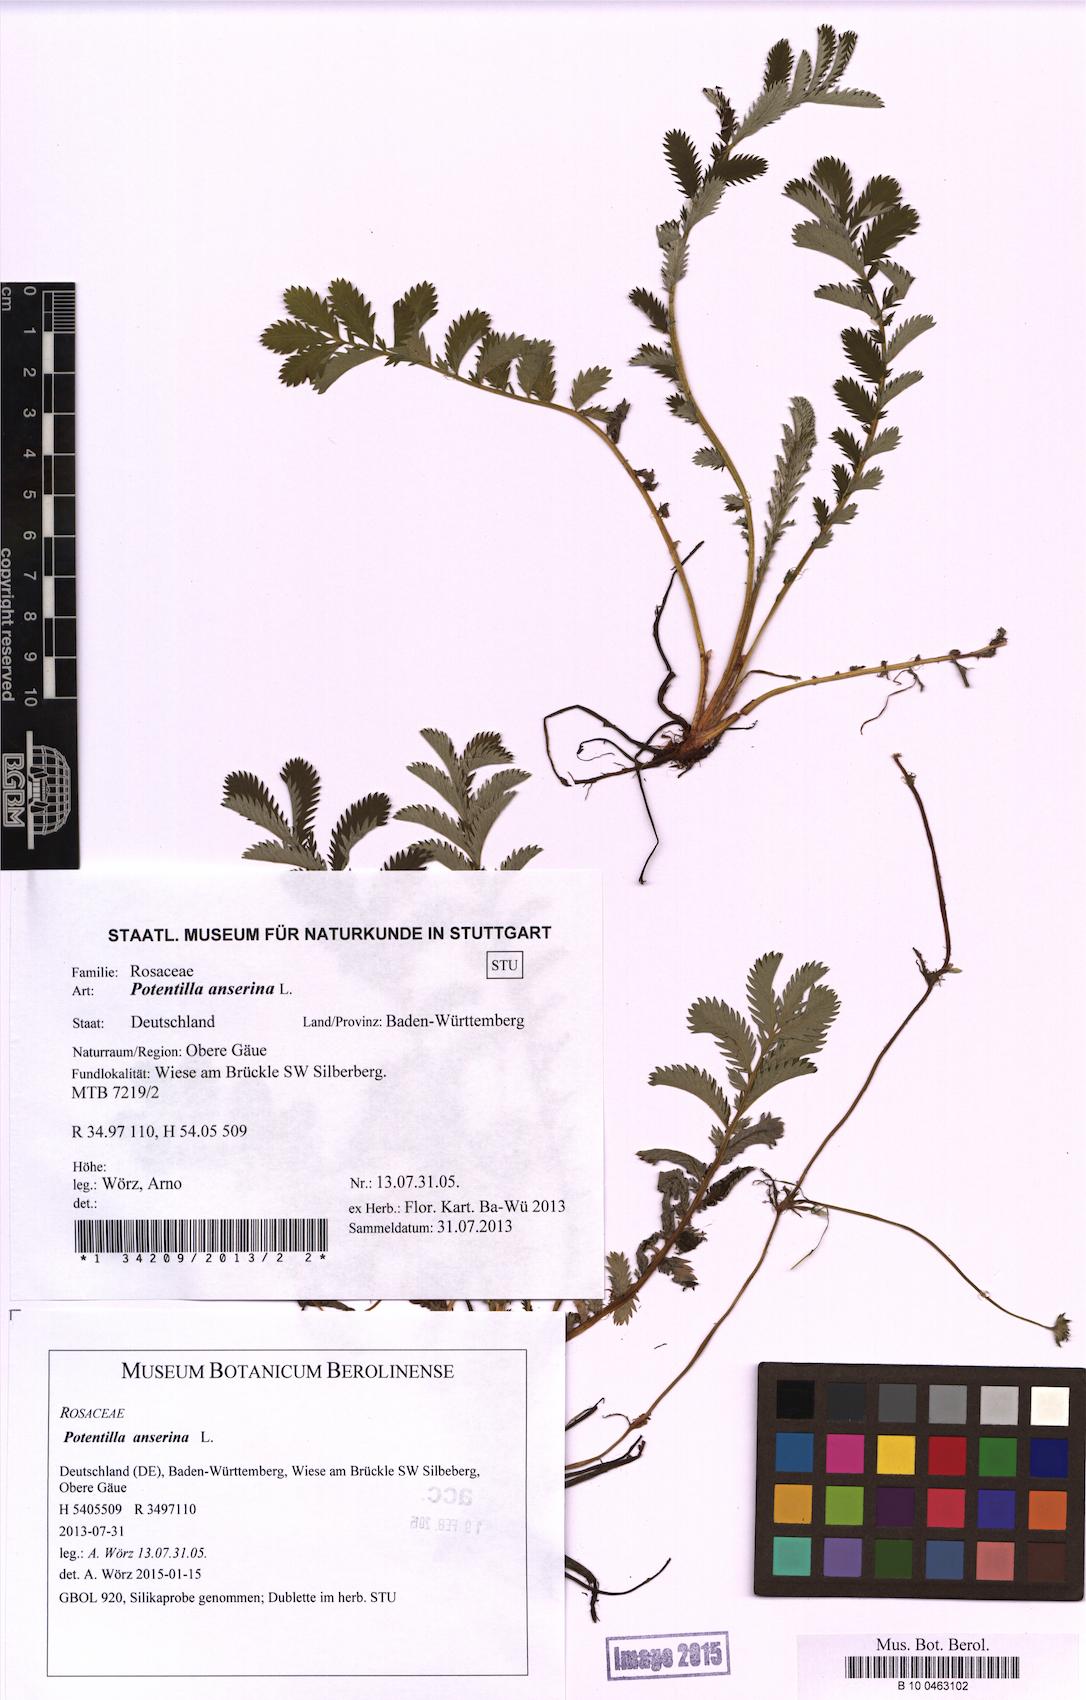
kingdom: Plantae
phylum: Tracheophyta
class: Magnoliopsida
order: Rosales
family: Rosaceae
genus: Argentina
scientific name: Argentina anserina
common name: Common silverweed
